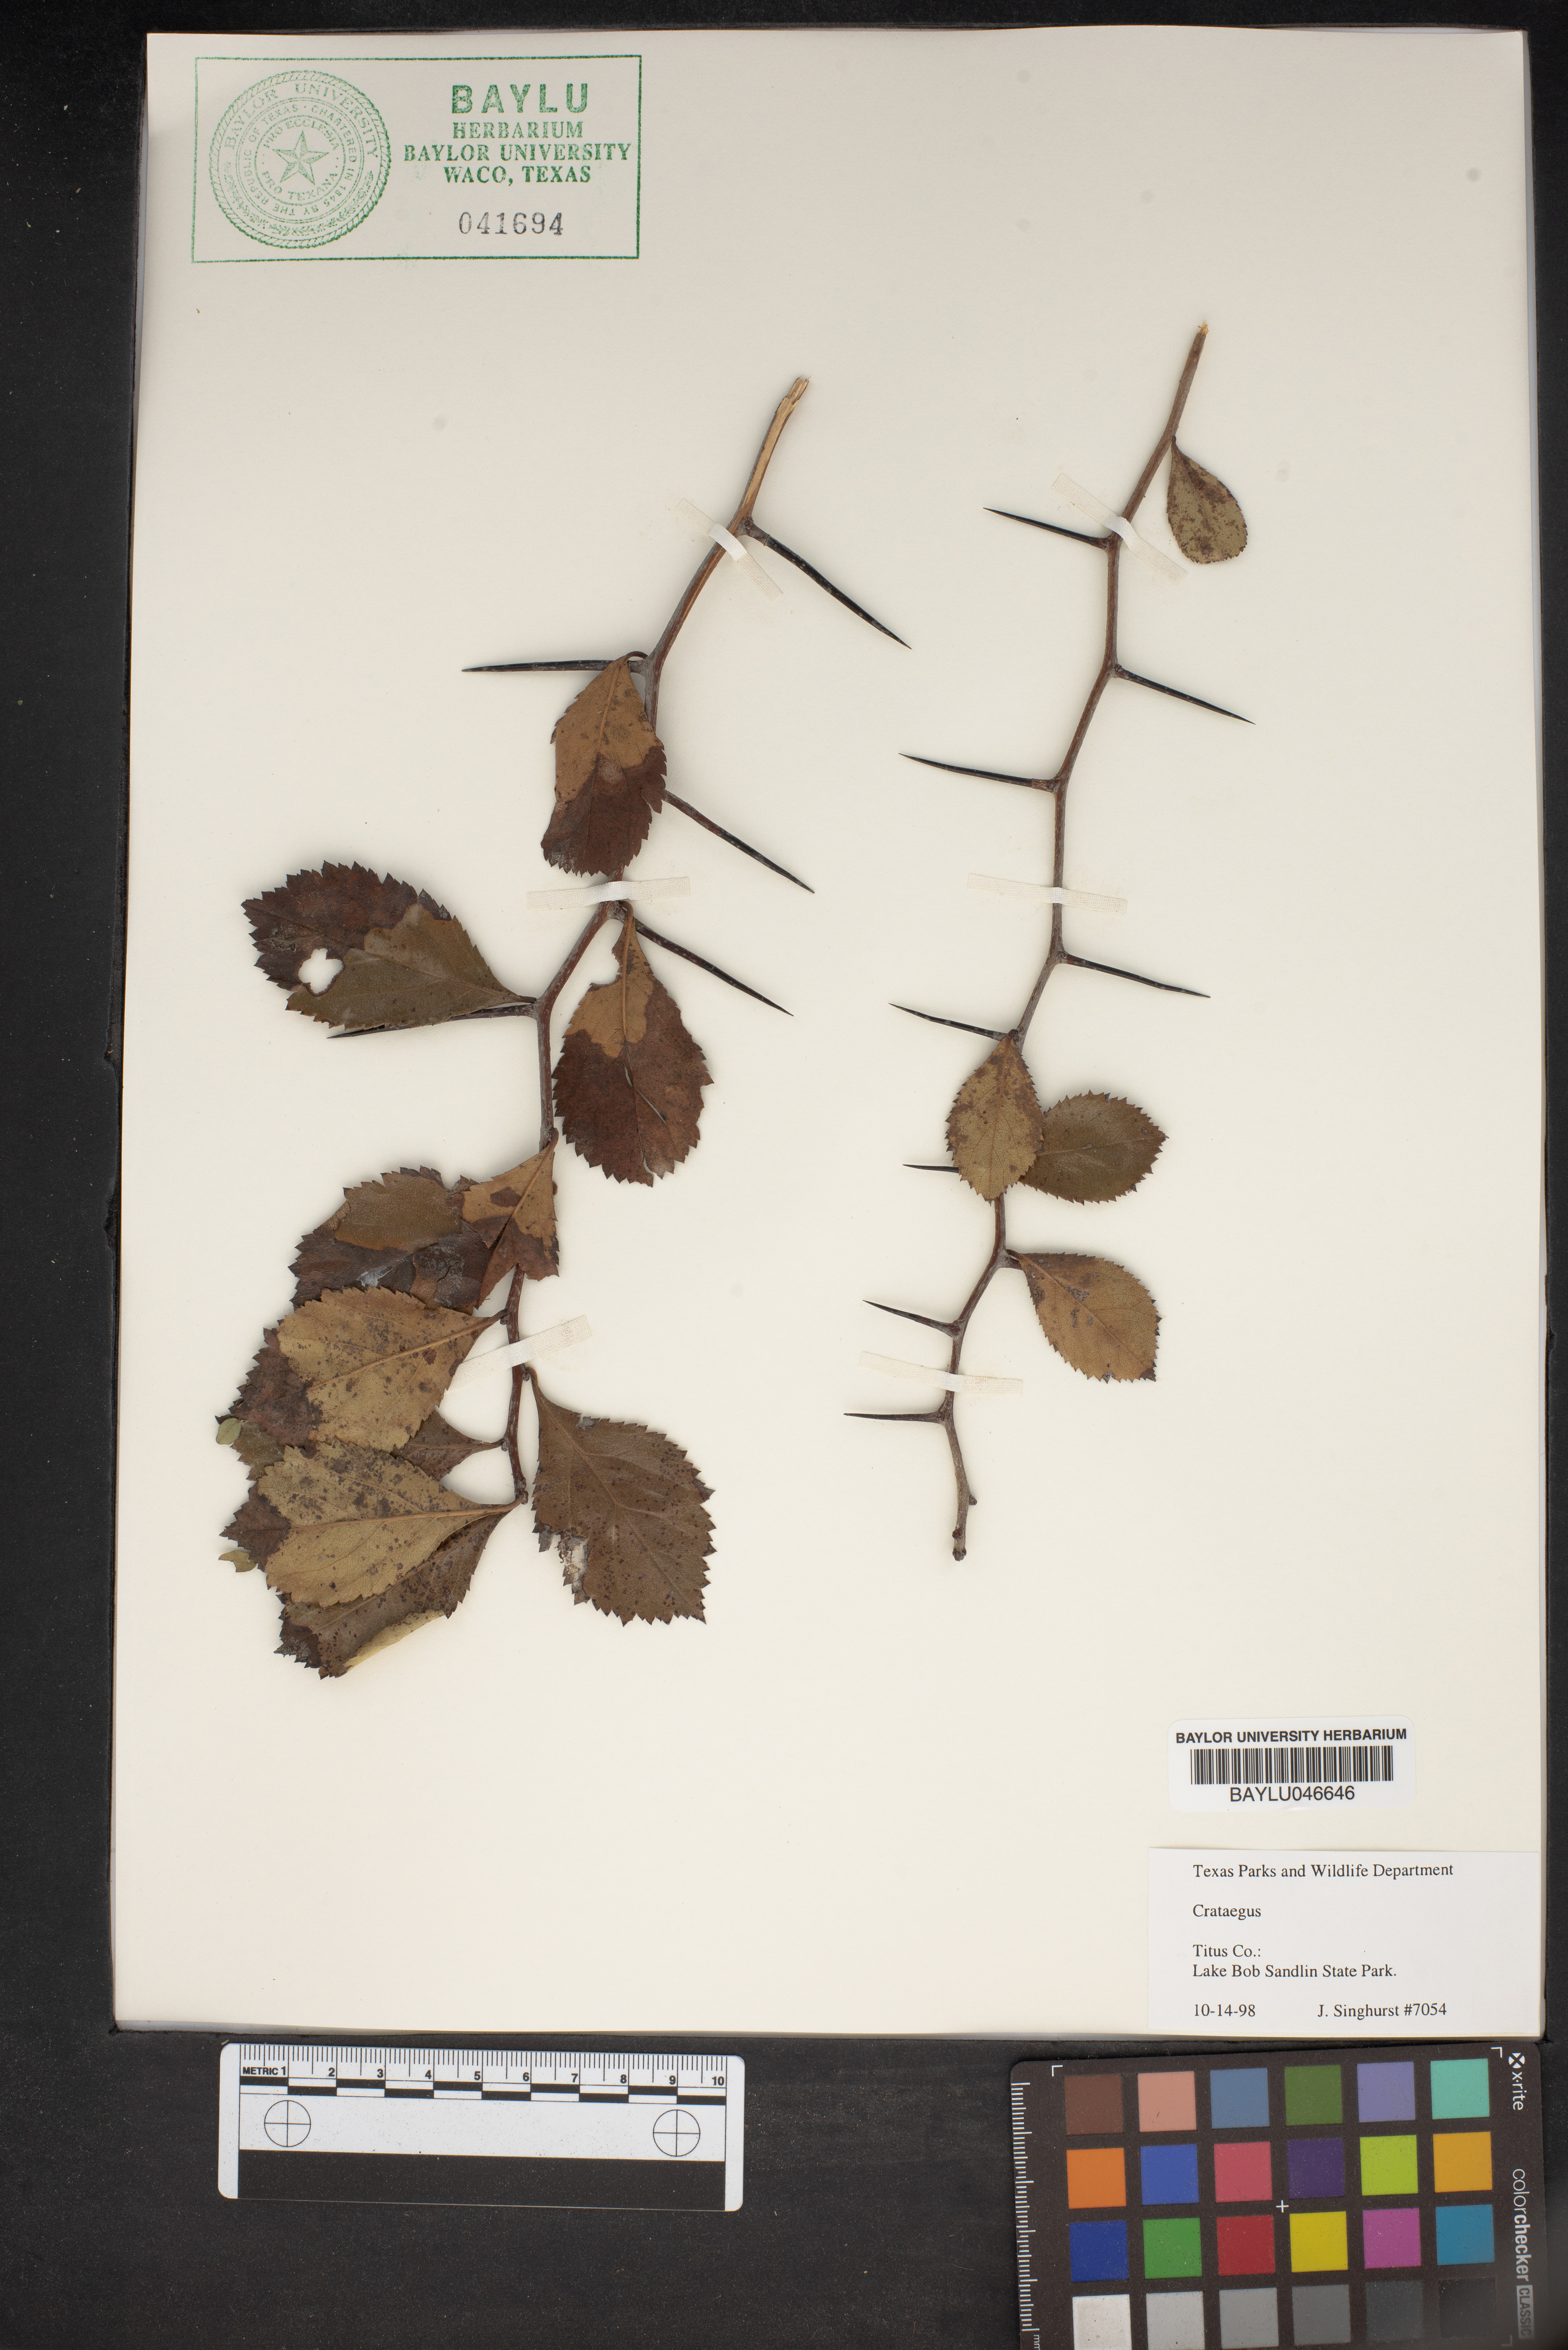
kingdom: Plantae
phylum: Tracheophyta
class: Magnoliopsida
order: Rosales
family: Rosaceae
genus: Crataegus
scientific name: Crataegus
